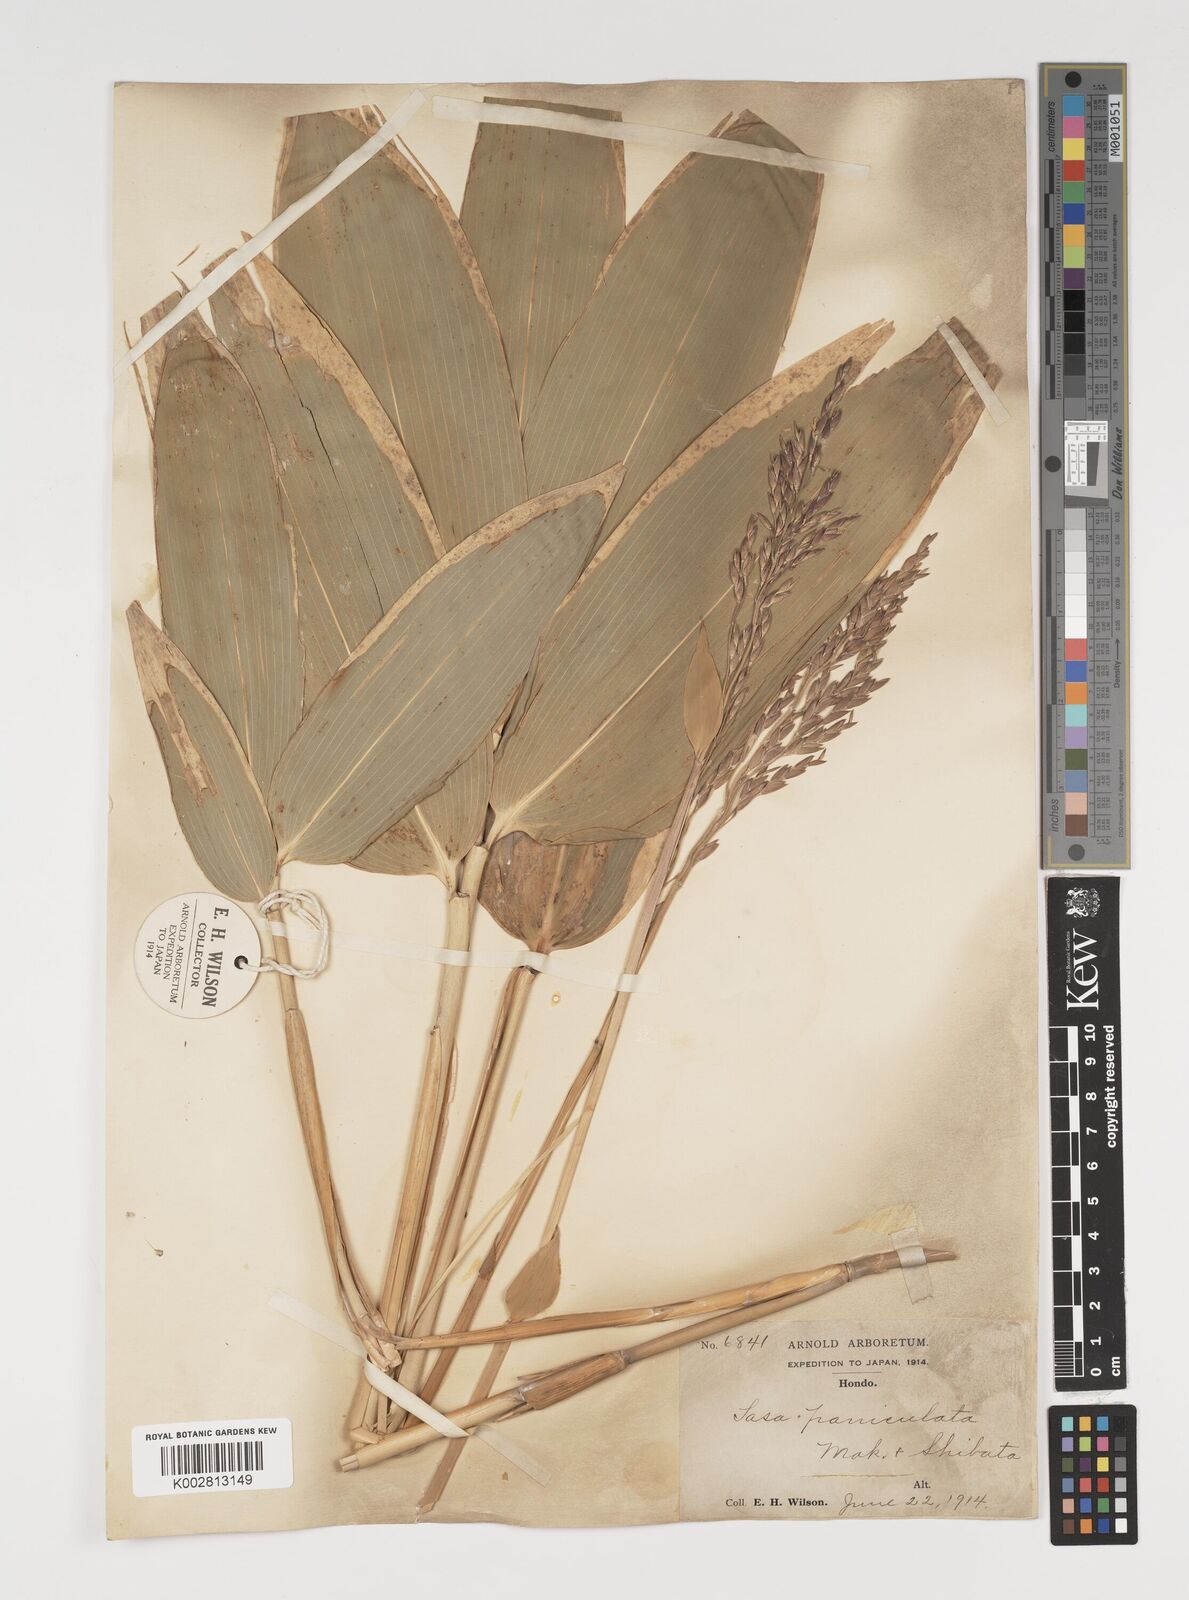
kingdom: Plantae
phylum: Tracheophyta
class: Liliopsida
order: Poales
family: Poaceae
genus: Sasa
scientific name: Sasa palmata
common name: Broad-leaved bamboo
